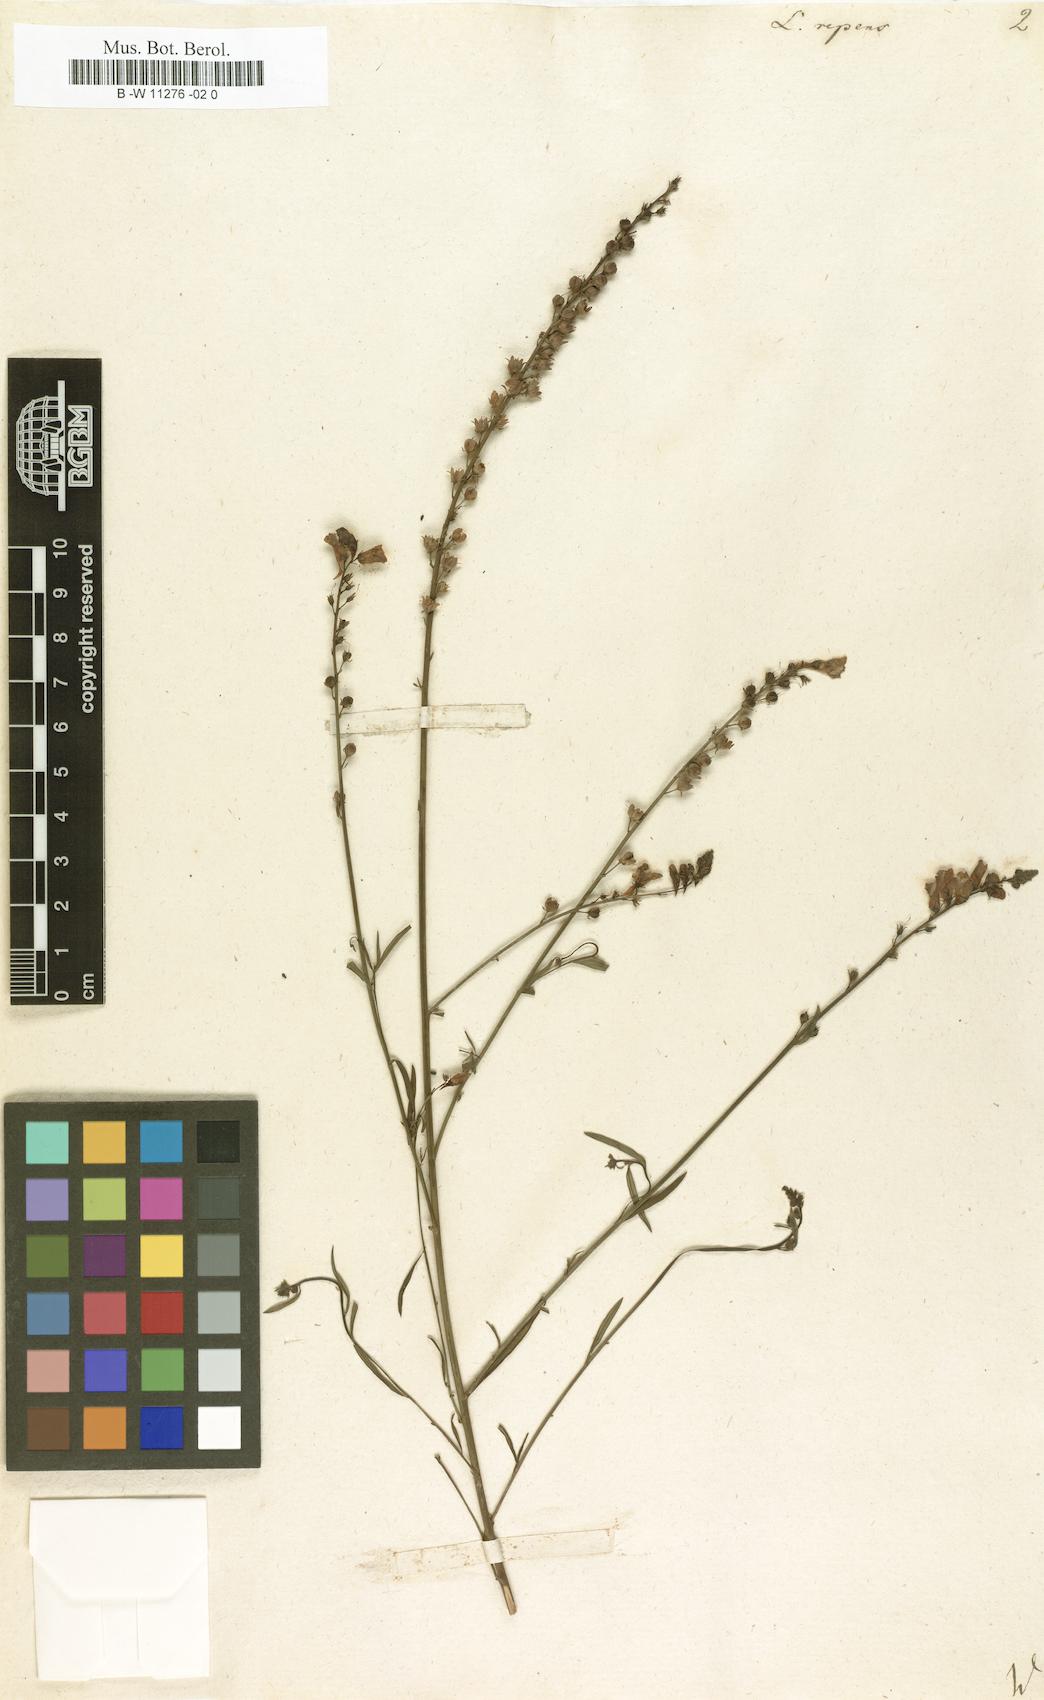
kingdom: Plantae
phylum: Tracheophyta
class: Magnoliopsida
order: Lamiales
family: Plantaginaceae
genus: Linaria
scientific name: Linaria repens
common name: Pale toadflax
